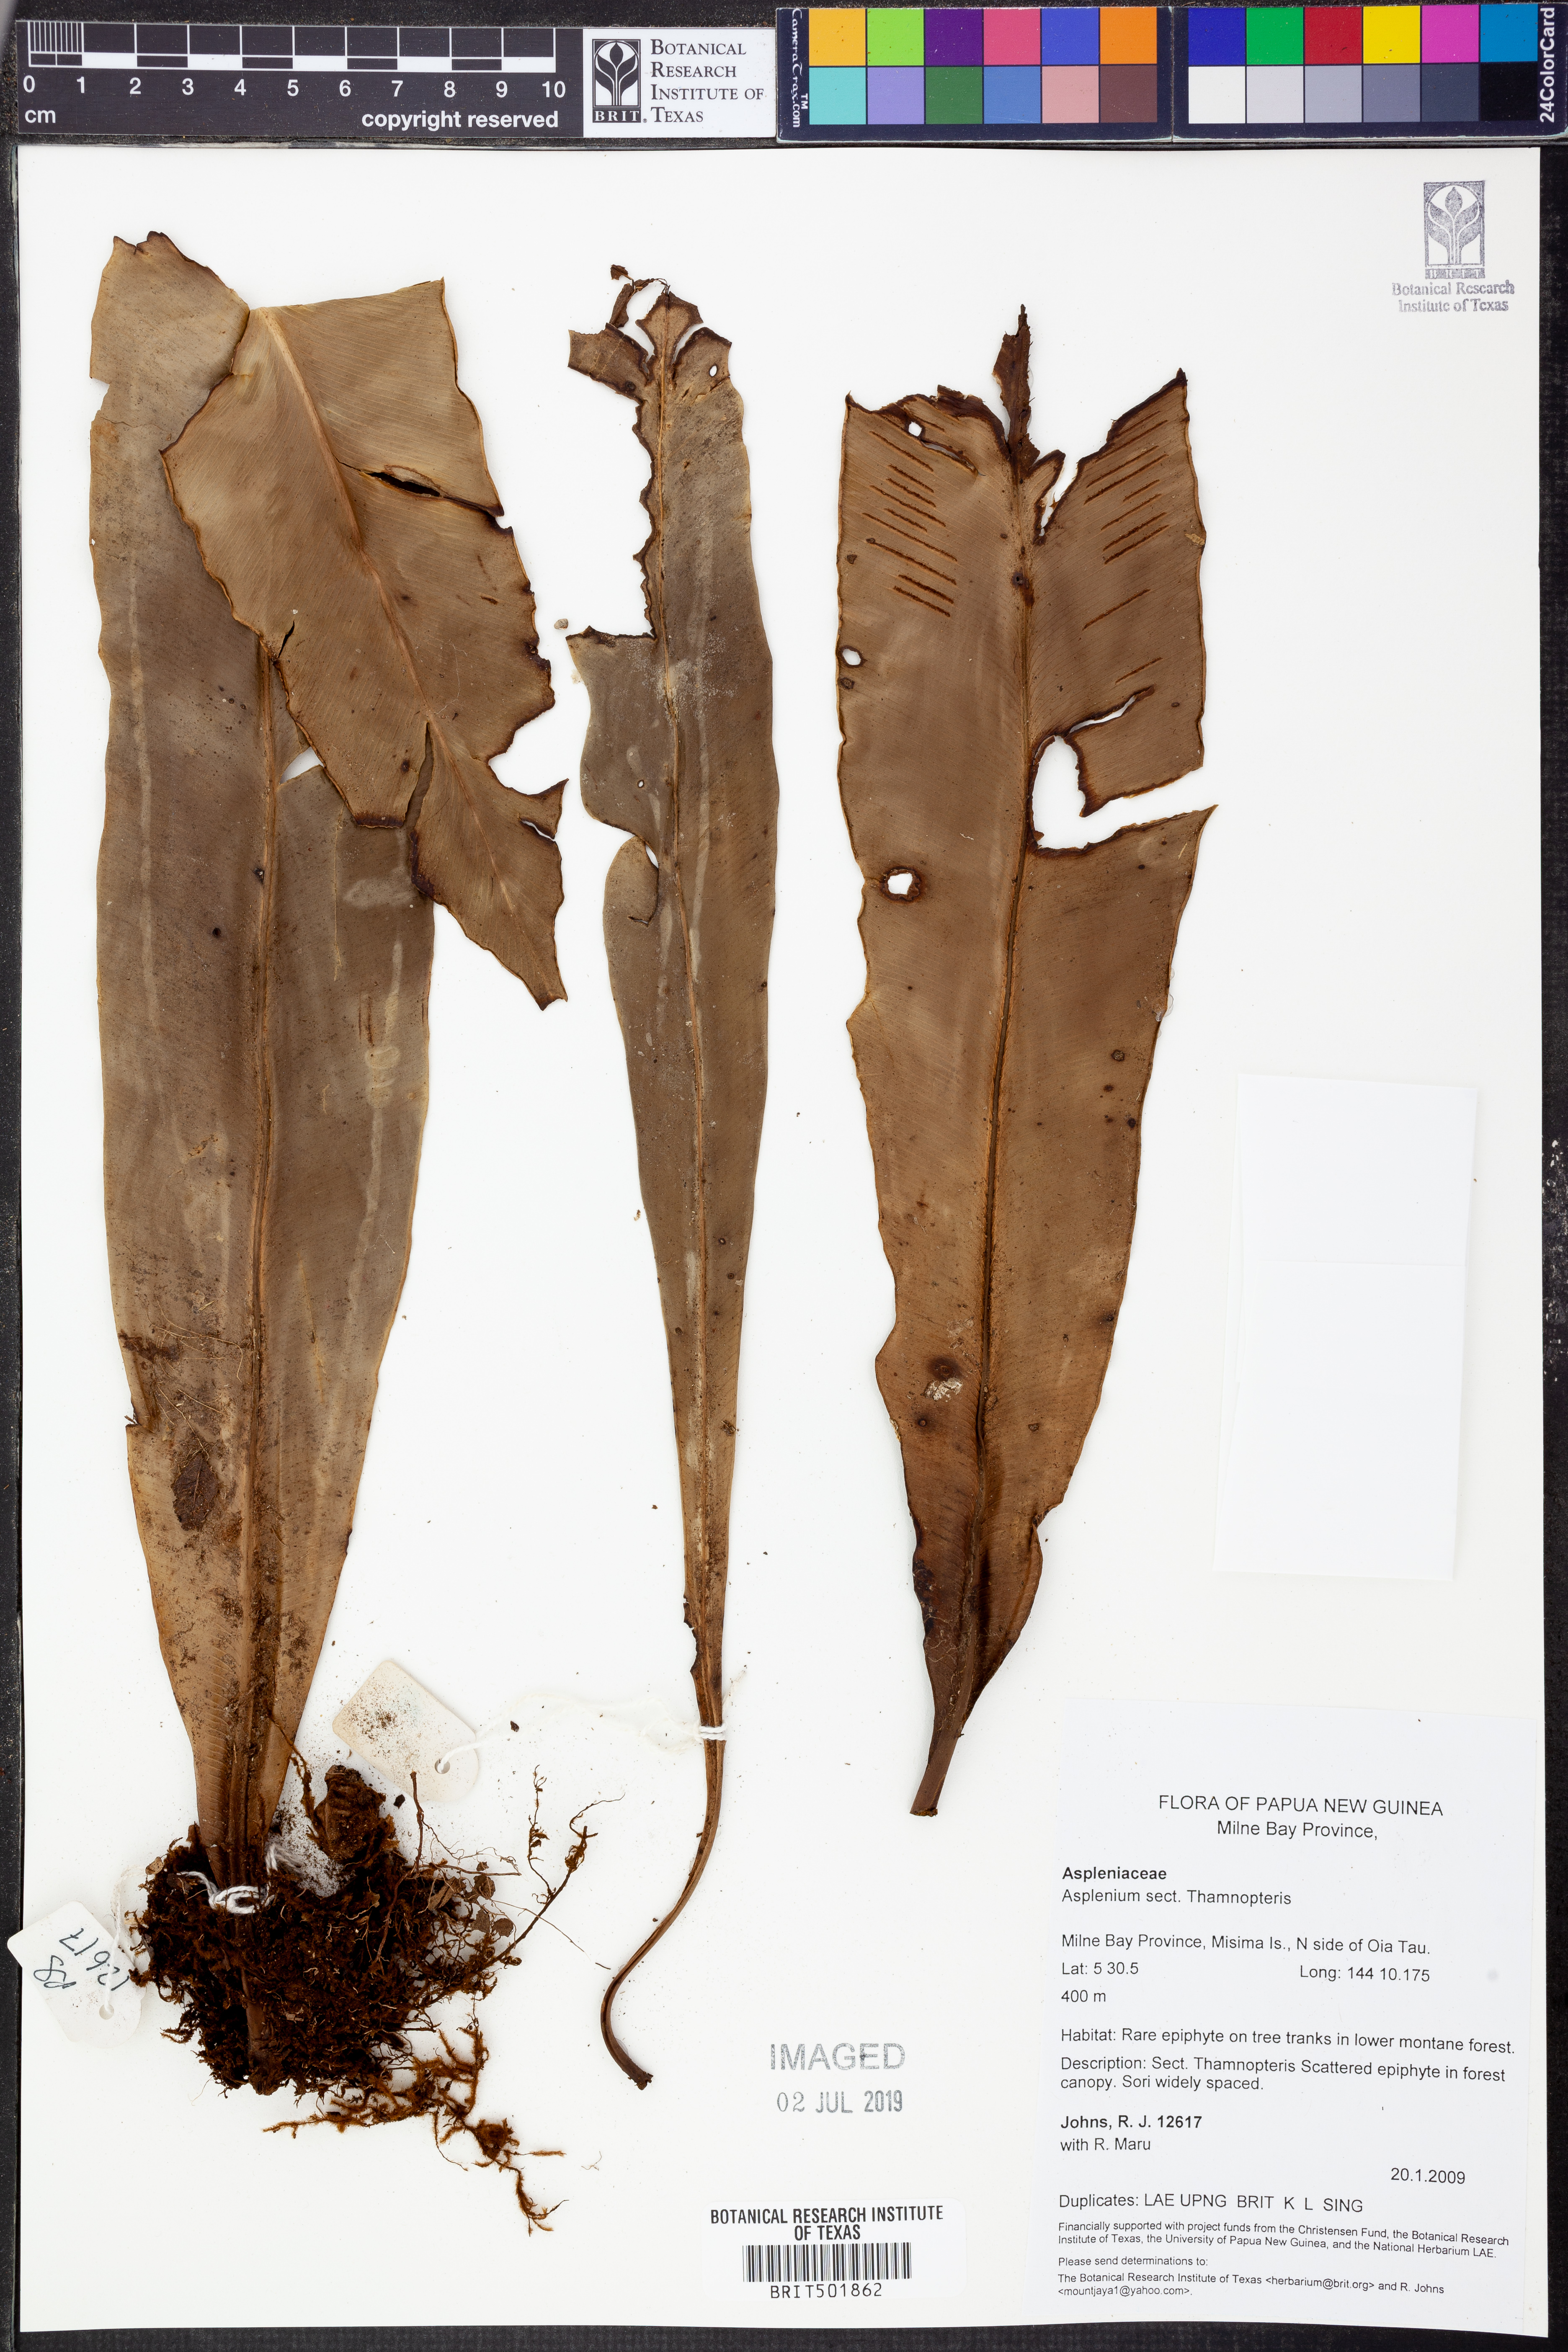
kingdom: Plantae
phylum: Tracheophyta
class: Polypodiopsida
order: Polypodiales
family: Aspleniaceae
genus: Asplenium
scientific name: Asplenium
